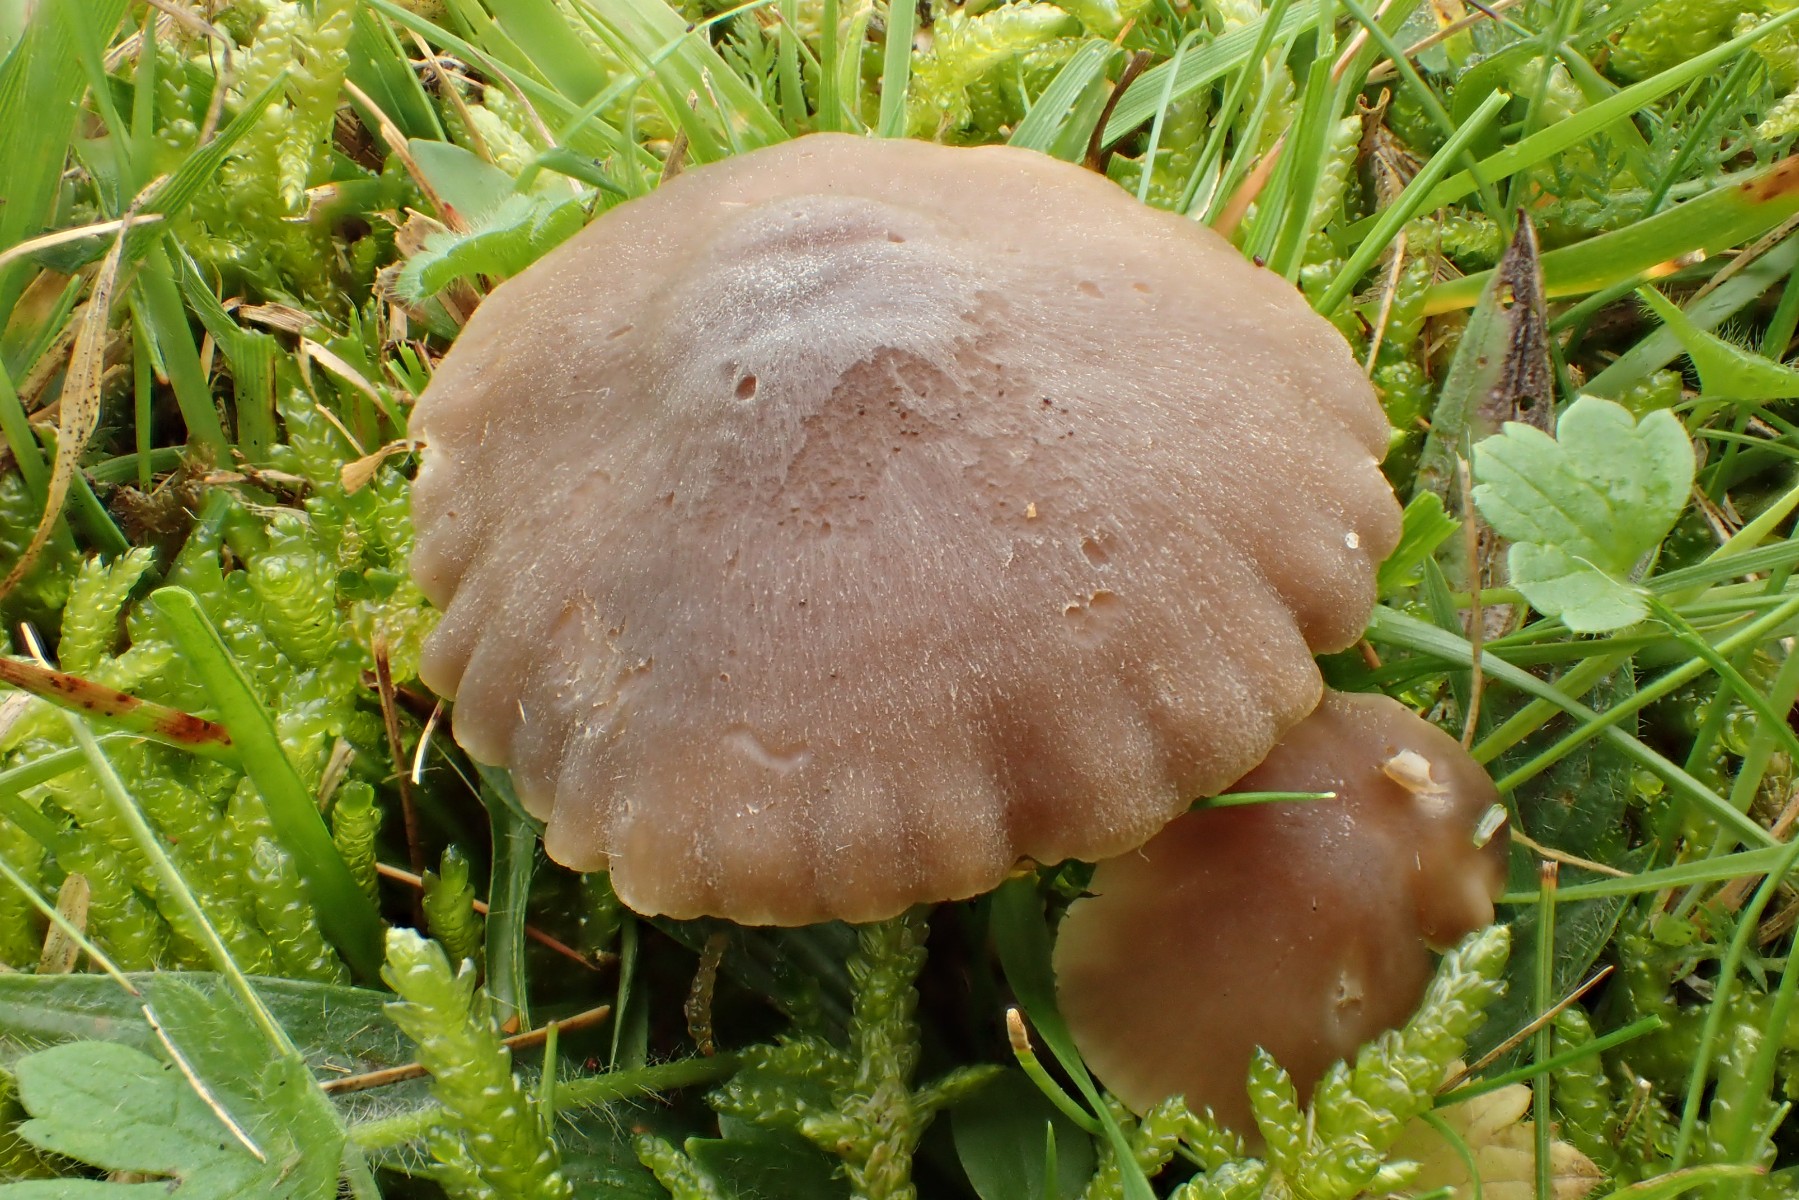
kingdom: Fungi
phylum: Basidiomycota
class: Agaricomycetes
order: Agaricales
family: Hygrophoraceae
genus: Neohygrocybe
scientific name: Neohygrocybe nitrata
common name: stinkende vokshat
